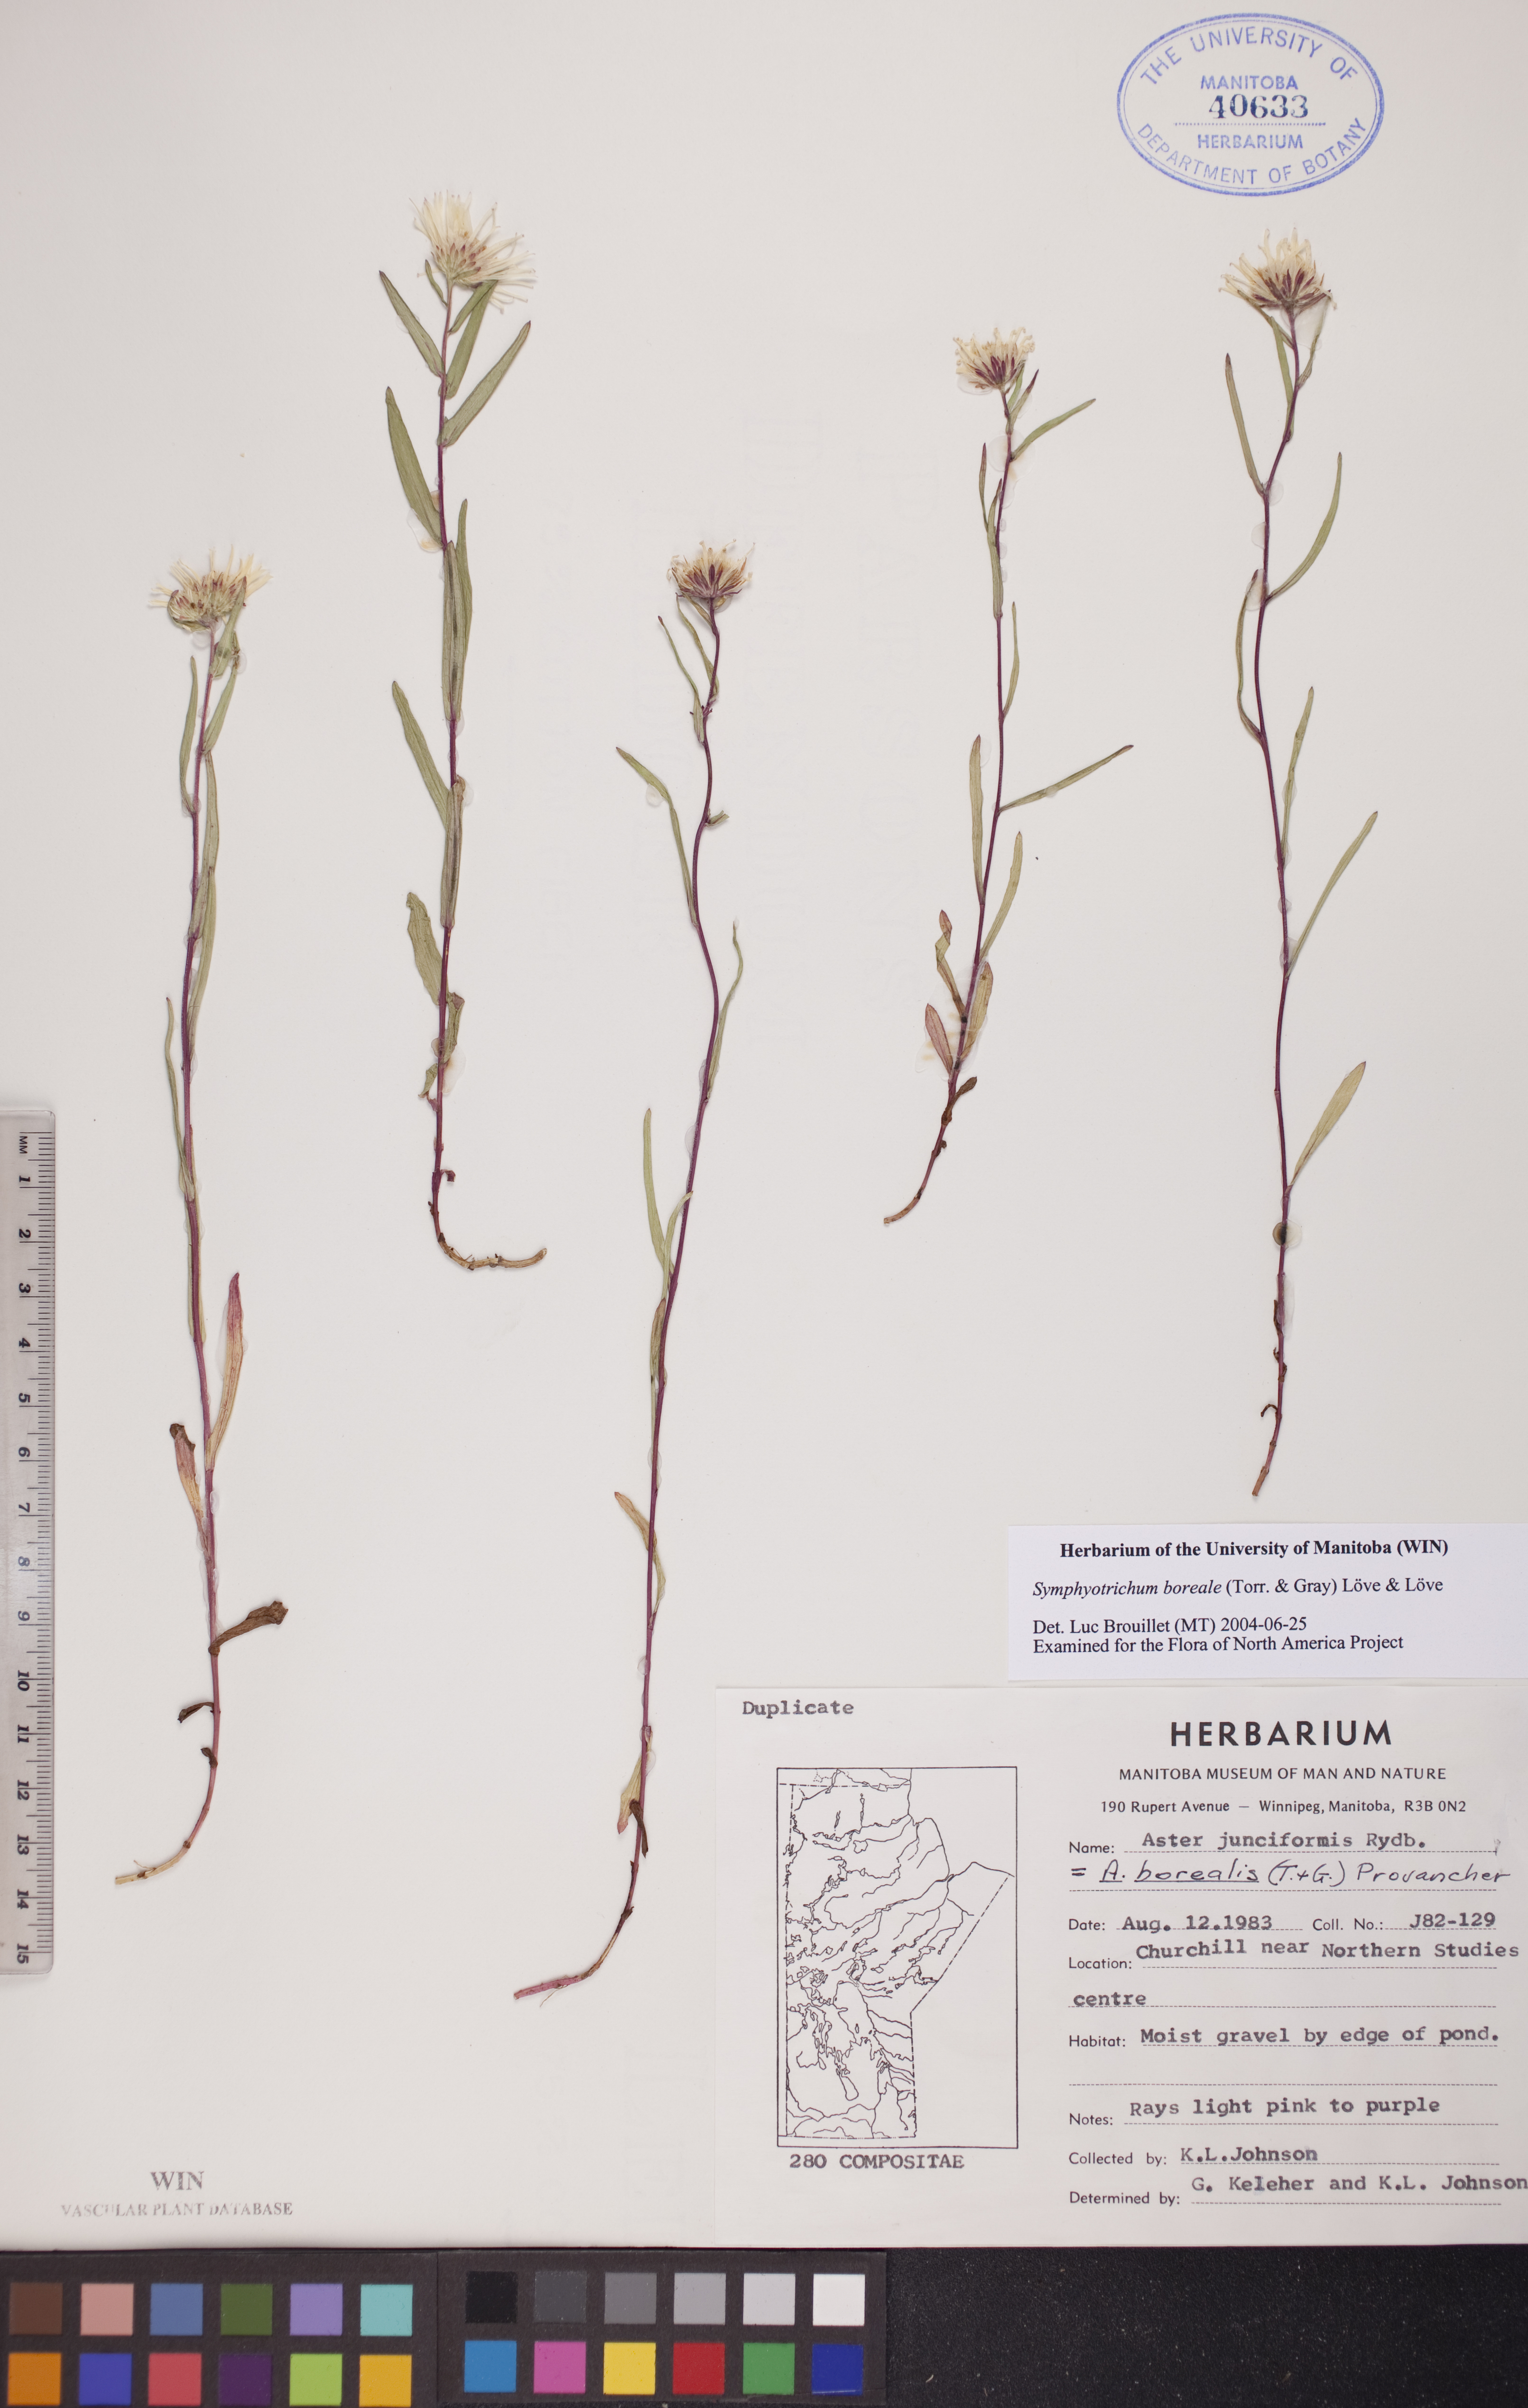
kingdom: Plantae
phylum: Tracheophyta
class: Magnoliopsida
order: Asterales
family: Asteraceae
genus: Symphyotrichum
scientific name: Symphyotrichum boreale
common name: Northern bog aster
